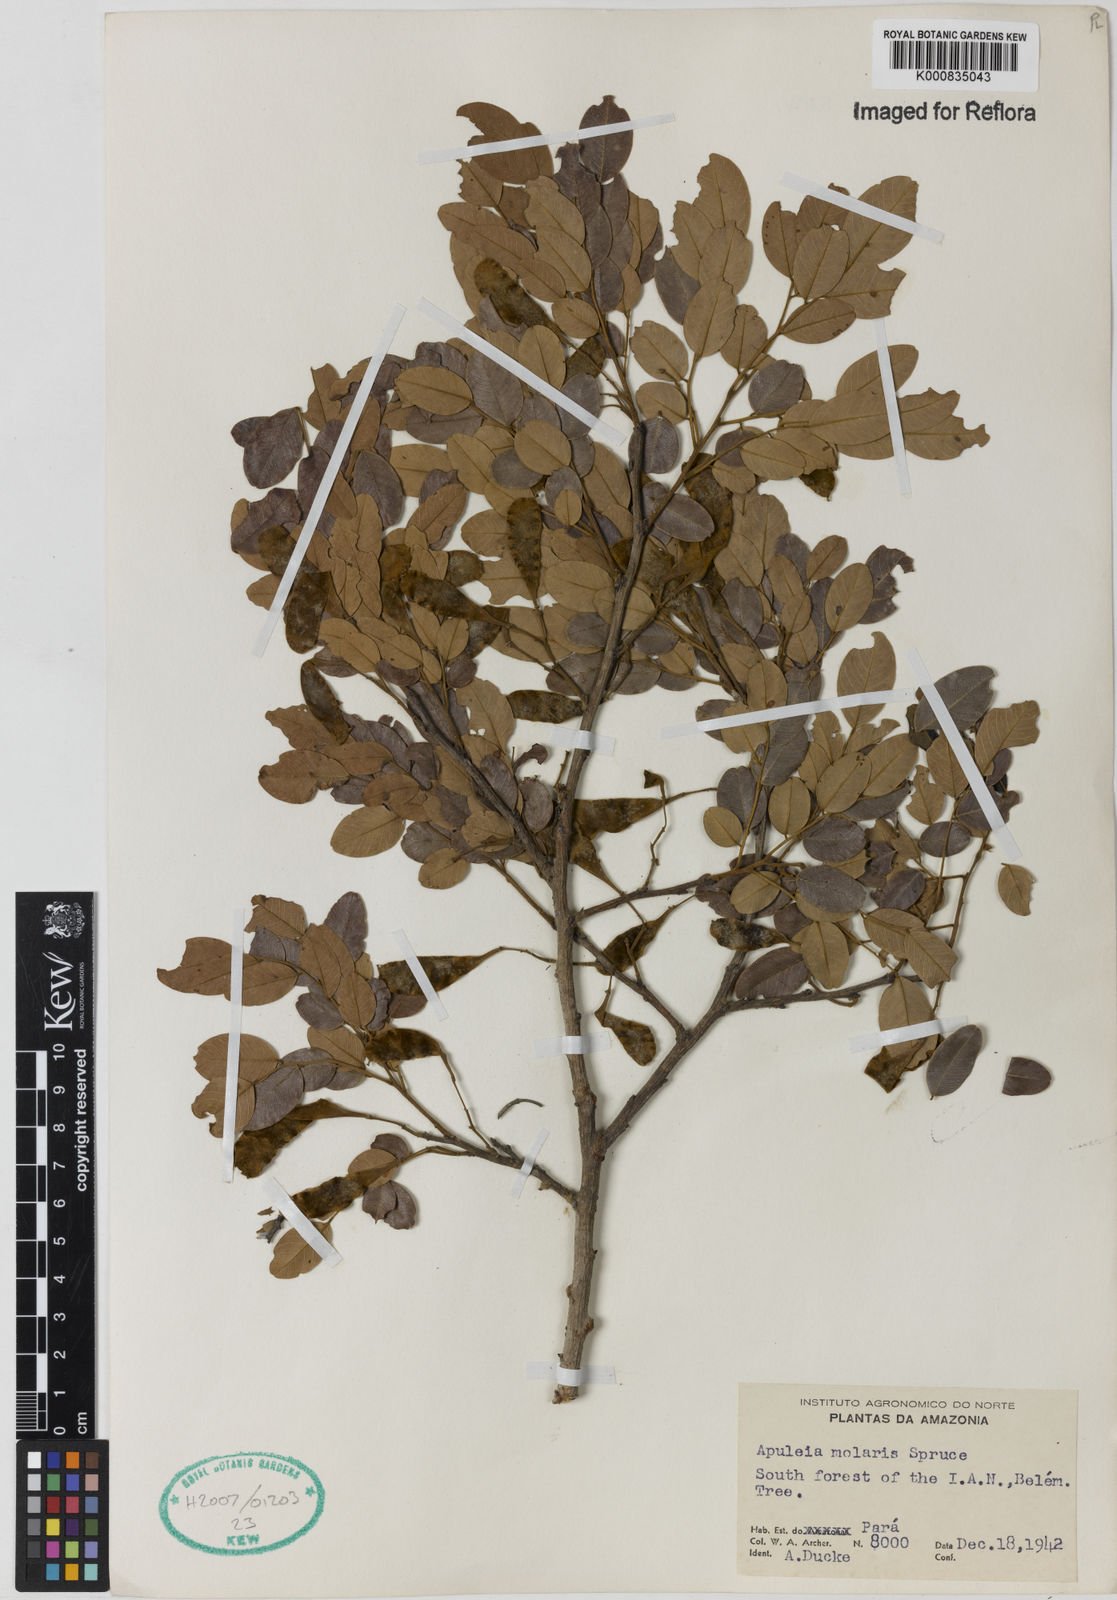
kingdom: Plantae
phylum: Tracheophyta
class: Magnoliopsida
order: Fabales
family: Fabaceae
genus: Apuleia
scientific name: Apuleia leiocarpa
